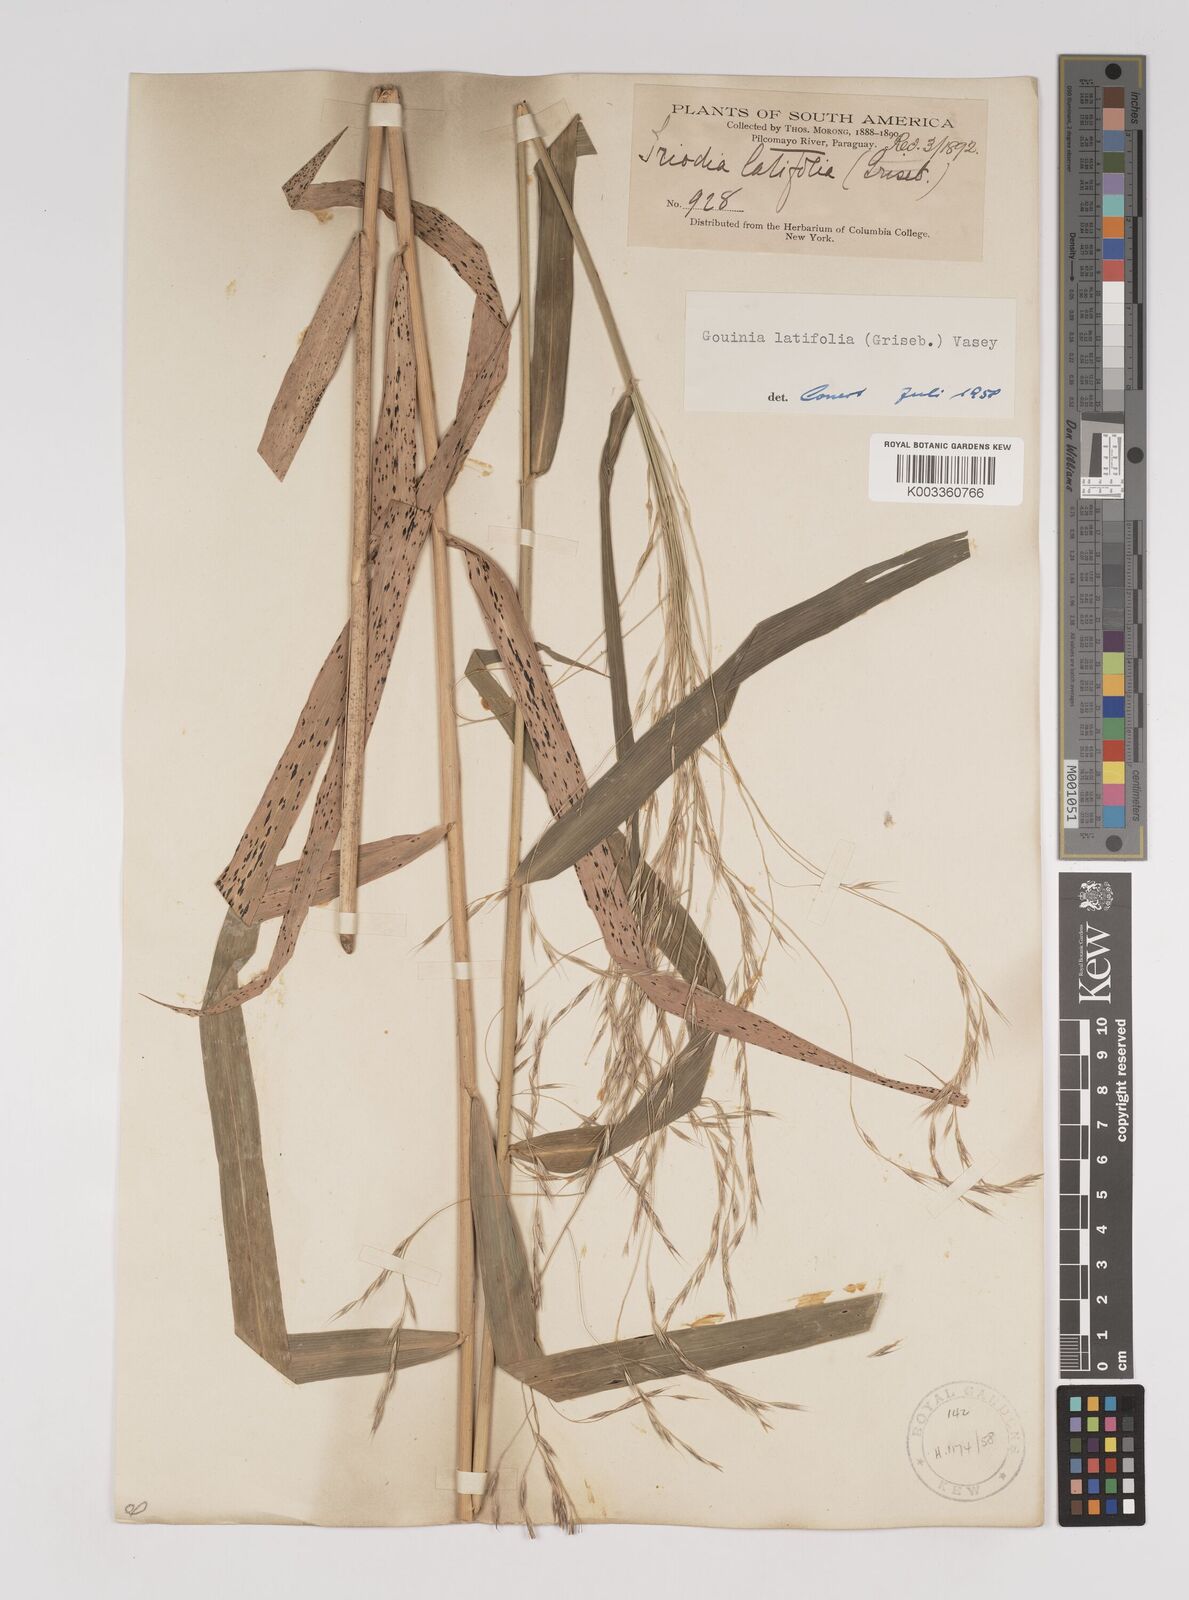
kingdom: Plantae
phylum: Tracheophyta
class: Liliopsida
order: Poales
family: Poaceae
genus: Gouinia
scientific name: Gouinia latifolia
